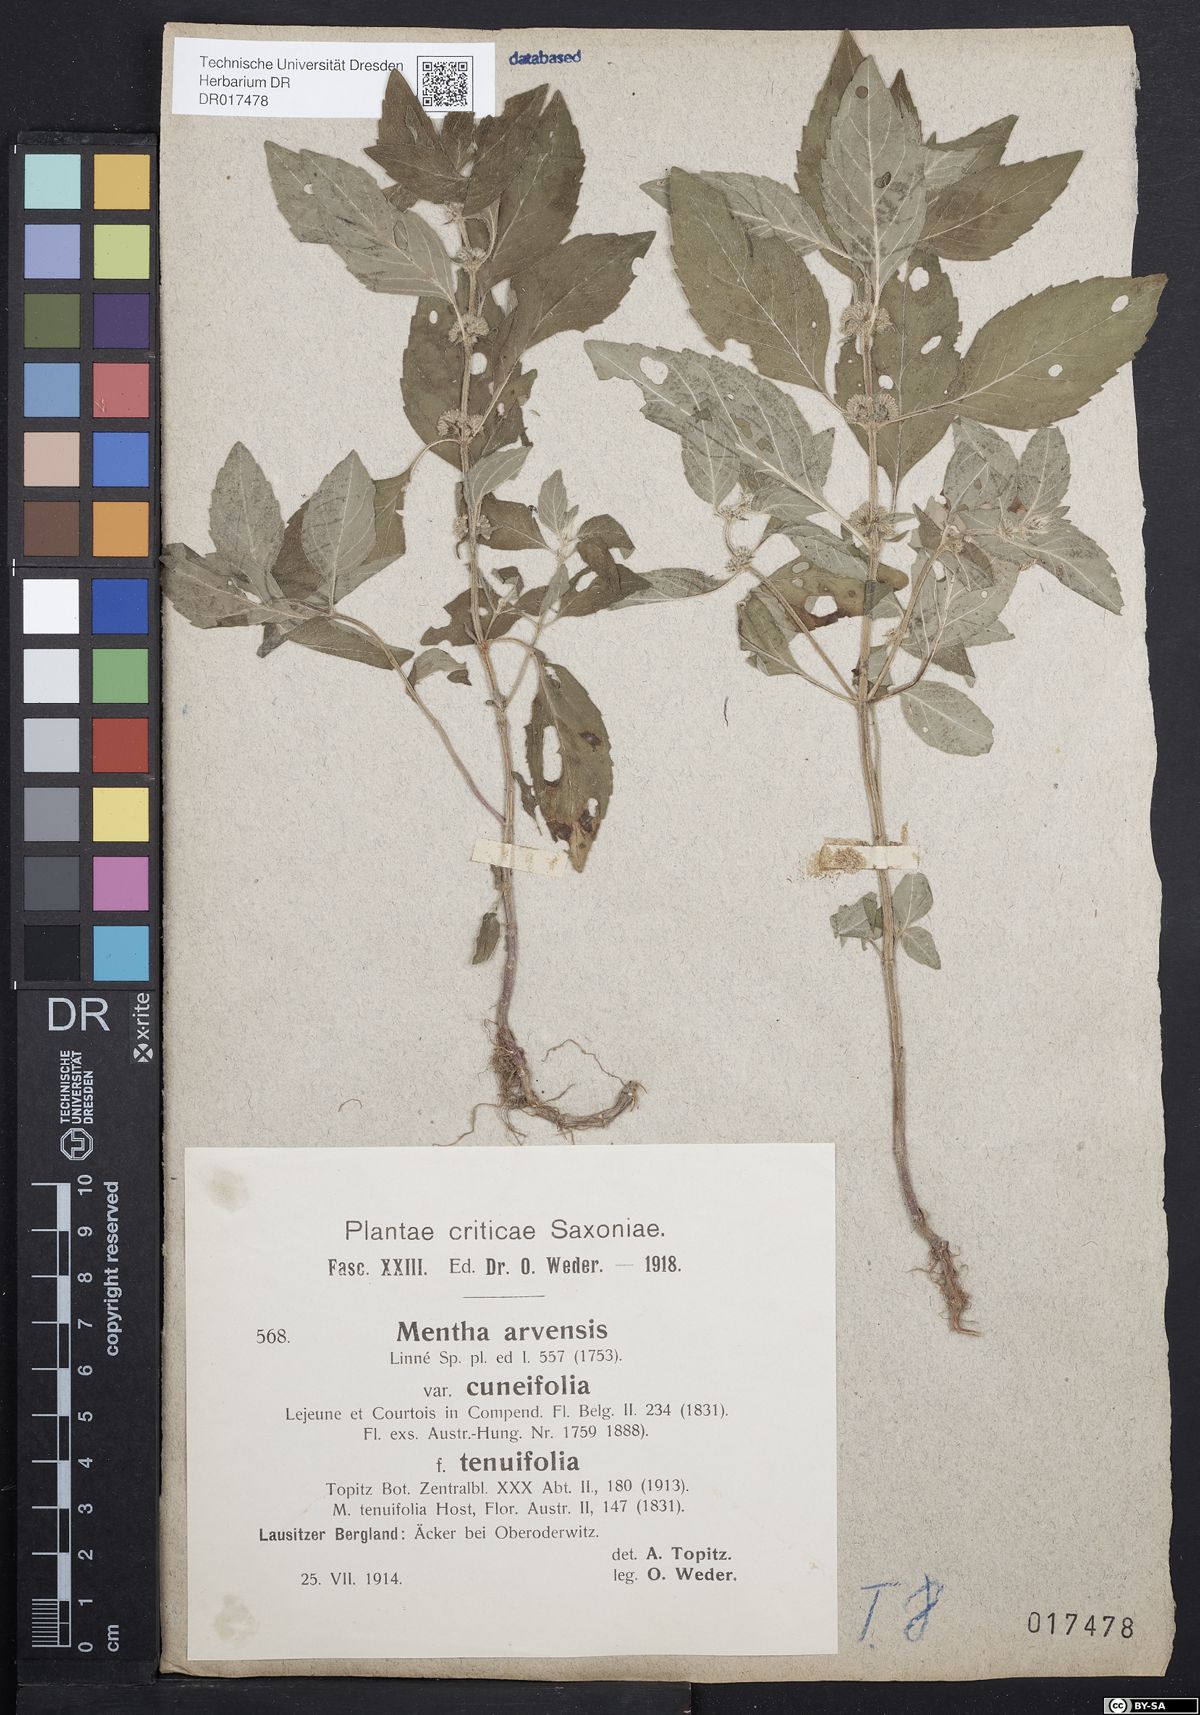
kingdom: Plantae
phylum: Tracheophyta
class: Magnoliopsida
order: Lamiales
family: Lamiaceae
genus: Mentha
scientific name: Mentha arvensis
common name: Corn mint
